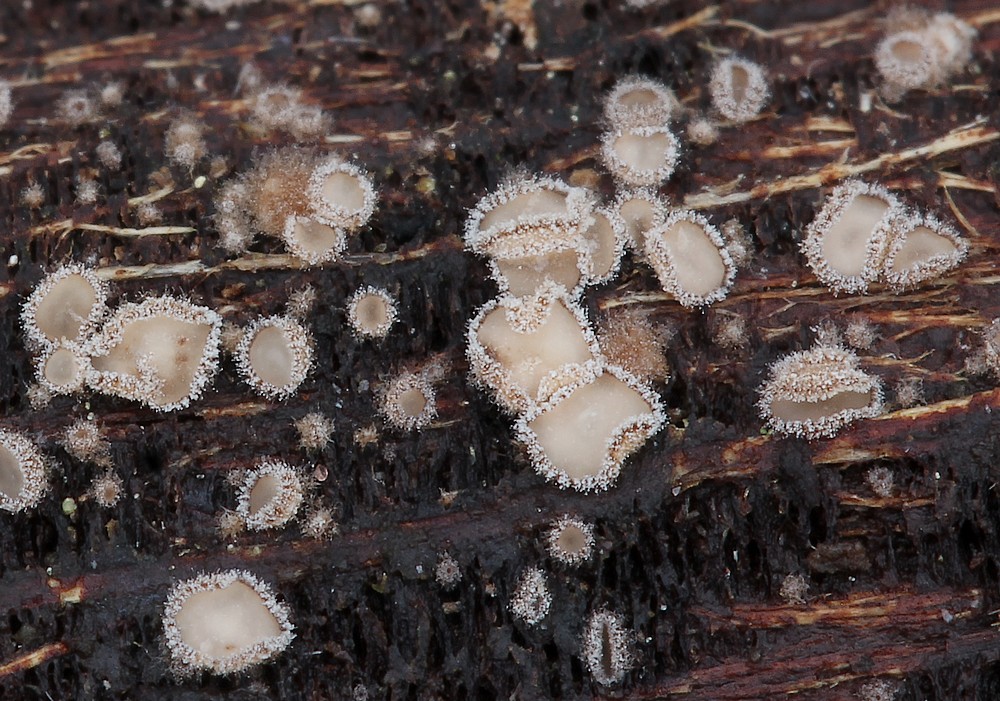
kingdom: Fungi
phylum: Ascomycota
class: Leotiomycetes
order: Helotiales
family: Solenopeziaceae
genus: Lasiobelonium
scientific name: Lasiobelonium variegatum
